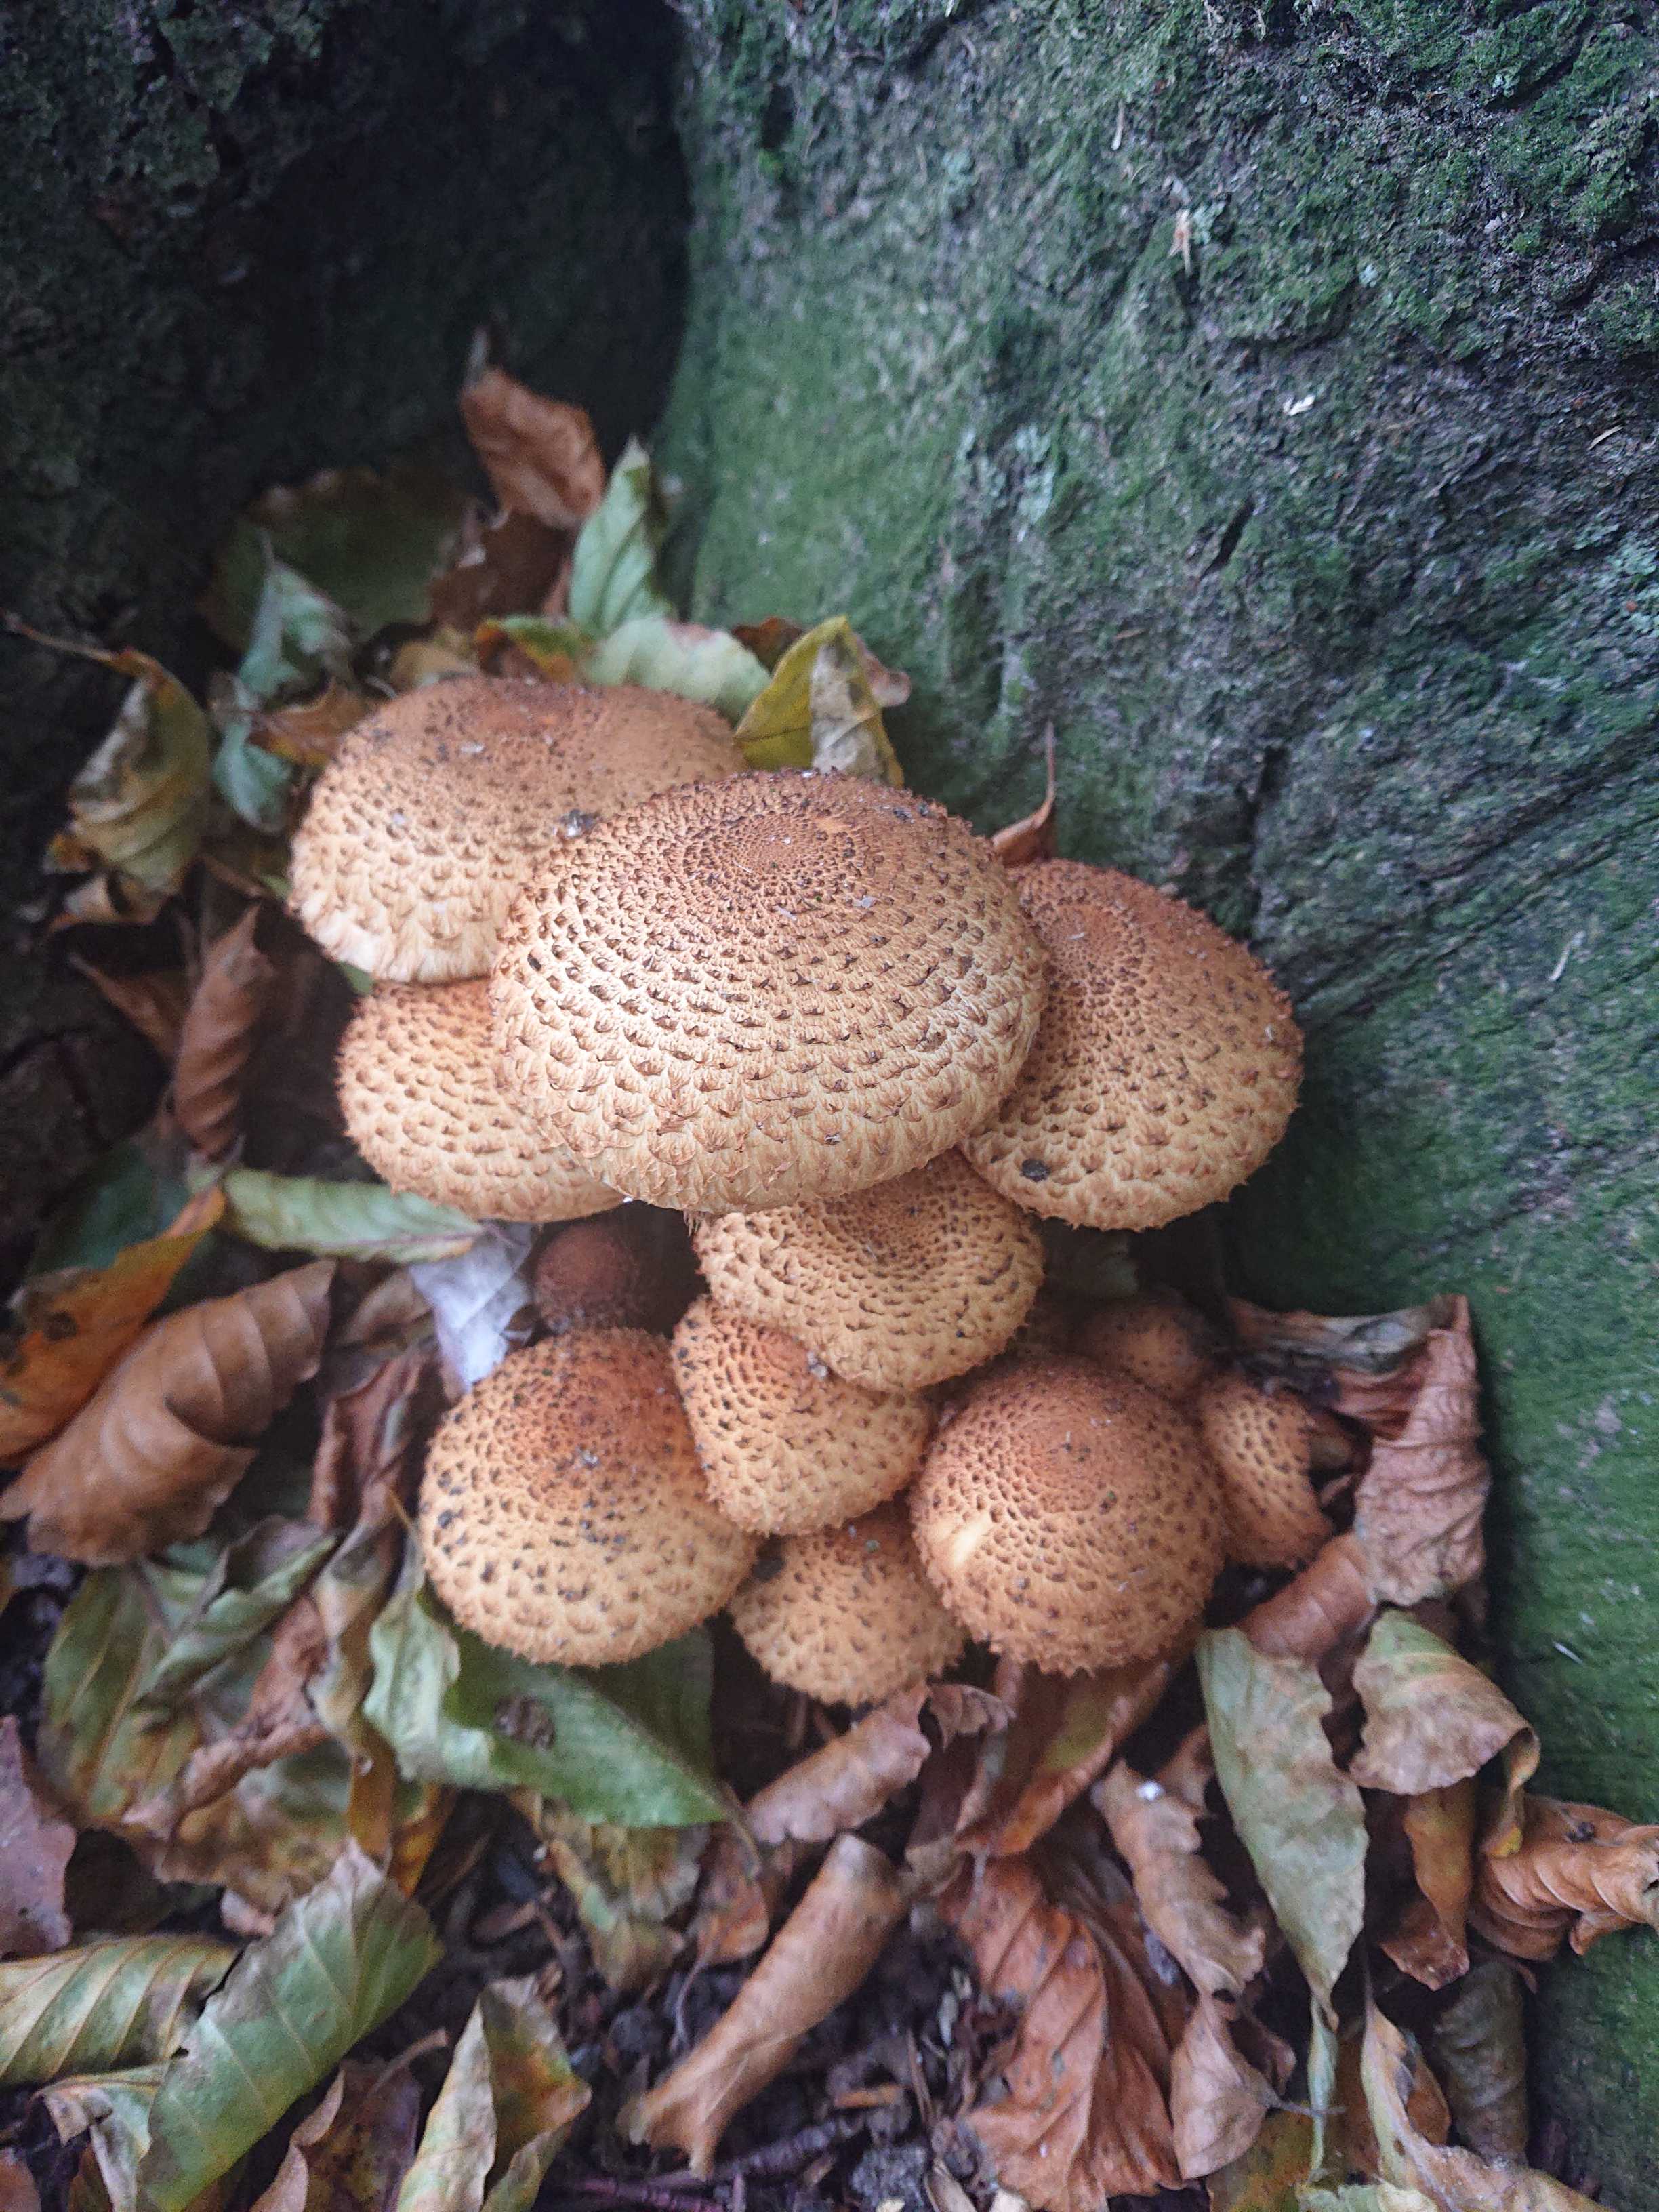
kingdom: Fungi
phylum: Basidiomycota
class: Agaricomycetes
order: Agaricales
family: Strophariaceae
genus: Pholiota
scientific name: Pholiota squarrosa
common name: krumskællet skælhat
